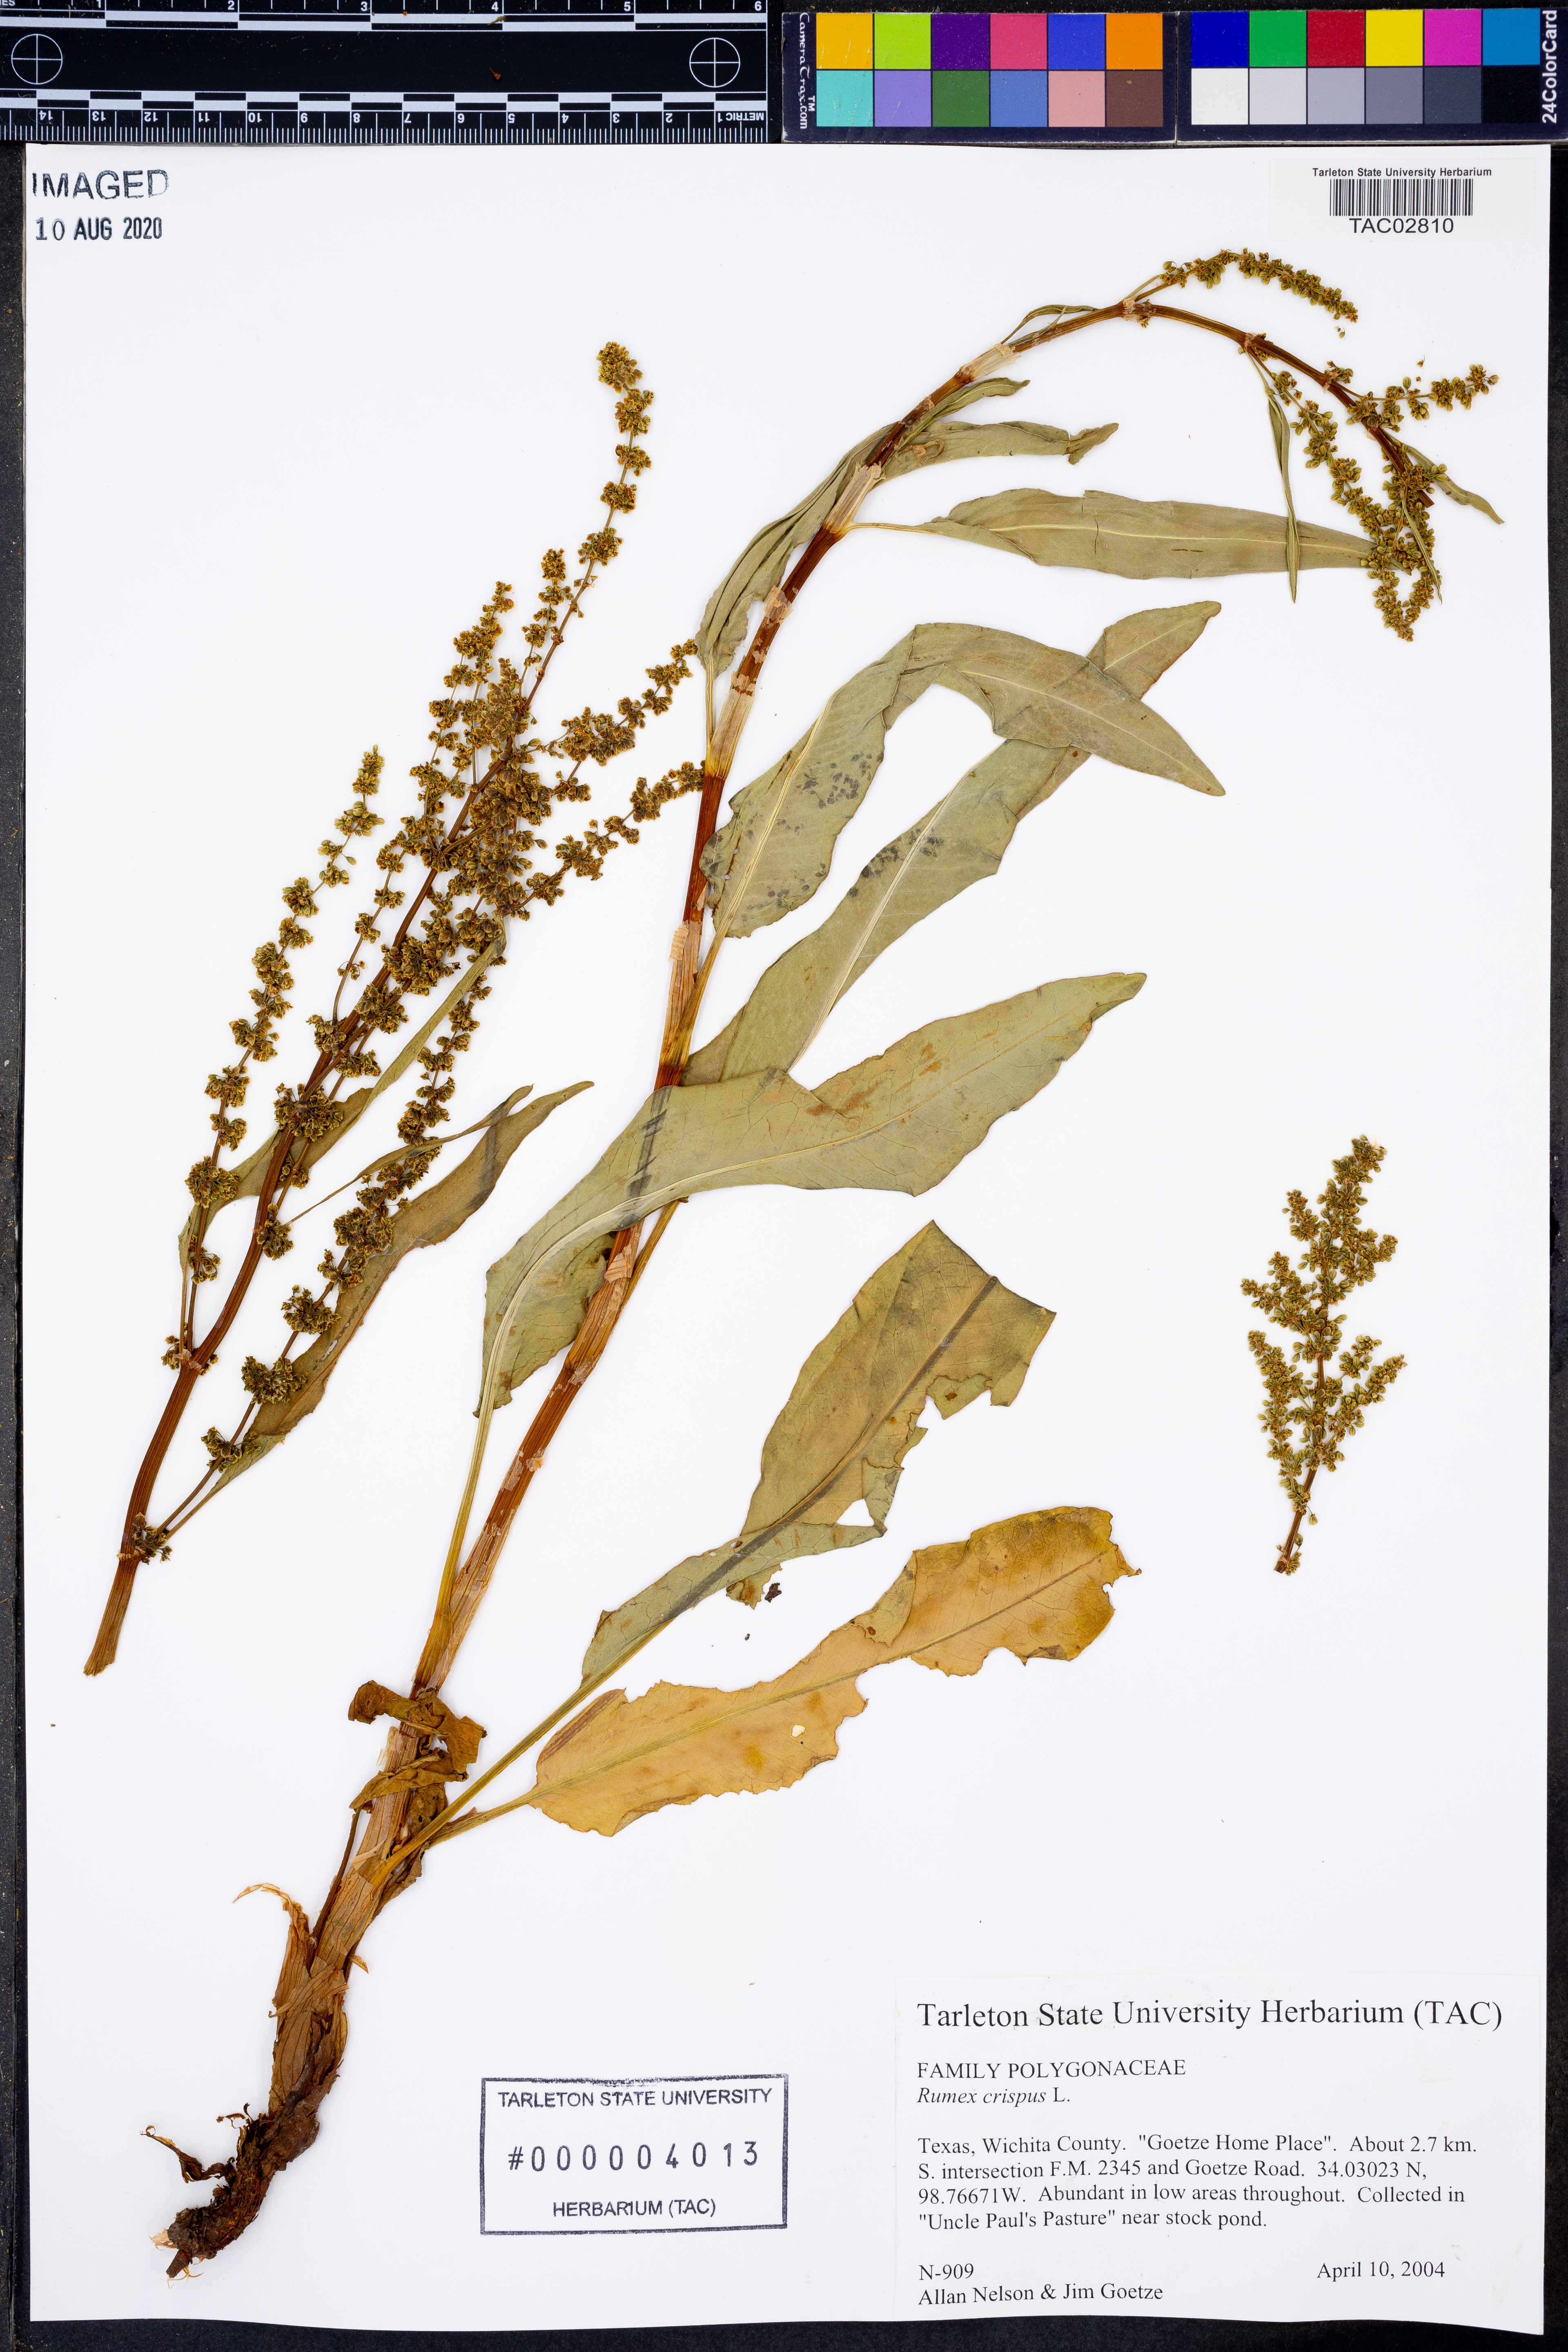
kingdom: Plantae
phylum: Tracheophyta
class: Magnoliopsida
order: Caryophyllales
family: Polygonaceae
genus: Rumex
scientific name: Rumex crispus
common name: Curled dock
